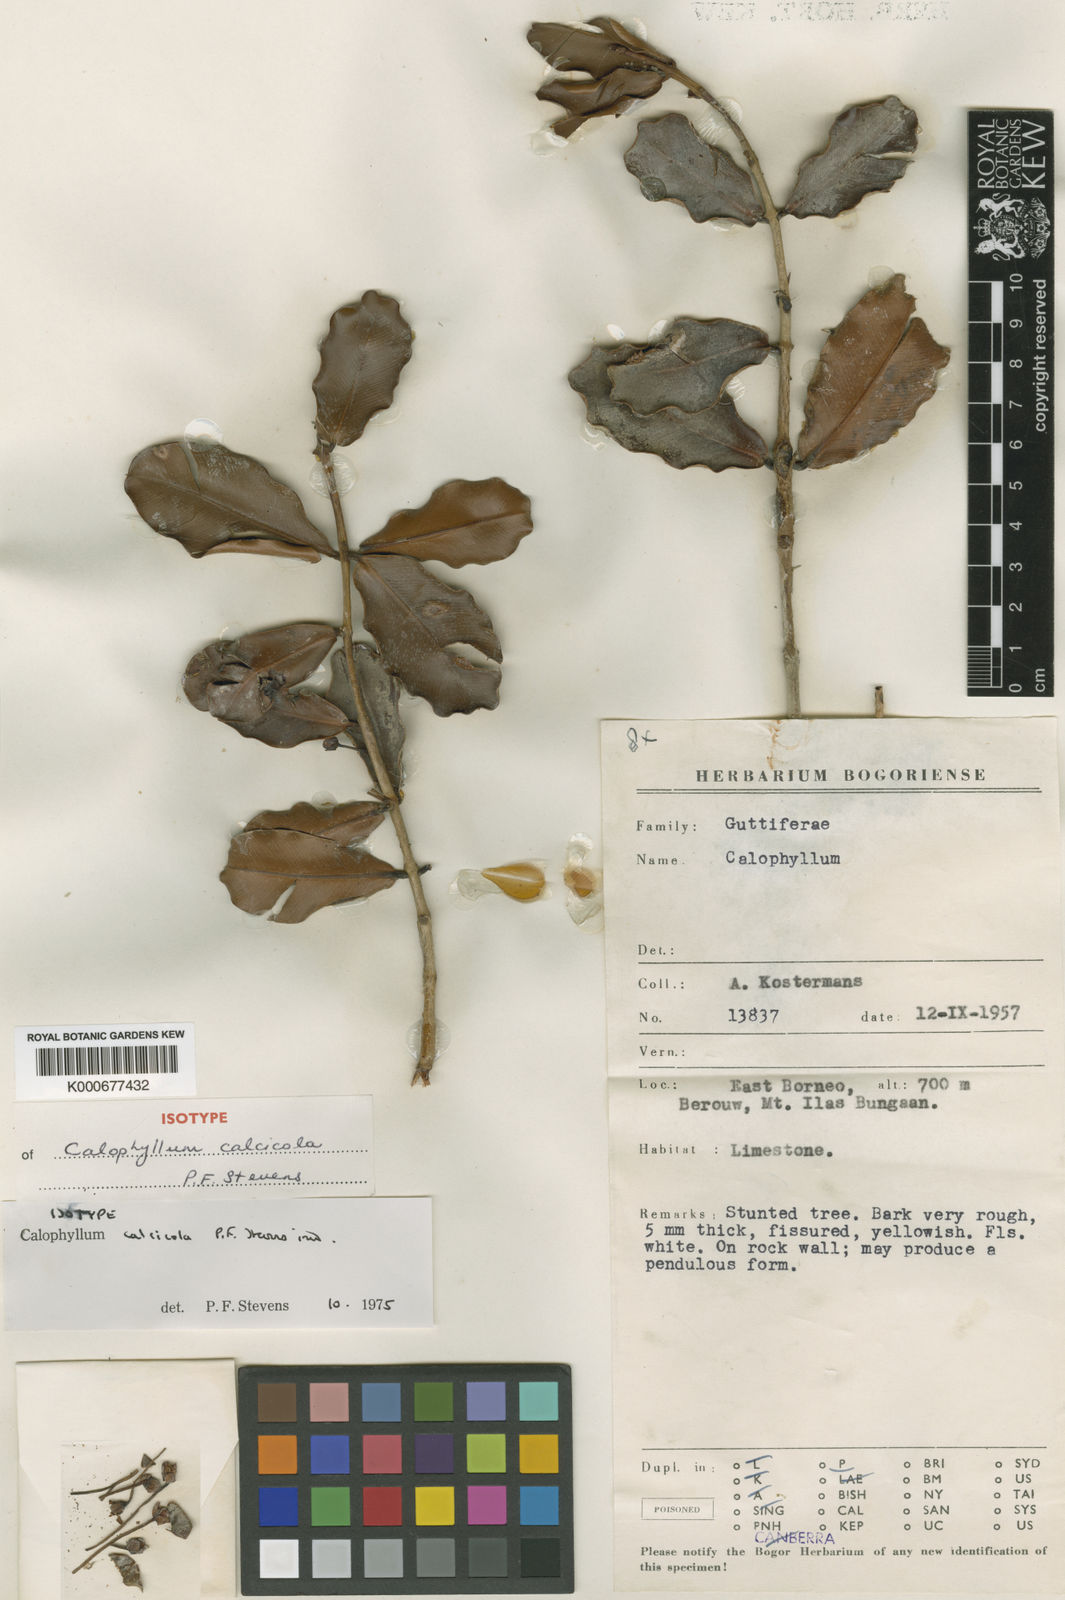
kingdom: Plantae
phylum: Tracheophyta
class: Magnoliopsida
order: Malpighiales
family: Calophyllaceae
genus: Calophyllum
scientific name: Calophyllum calcicola
